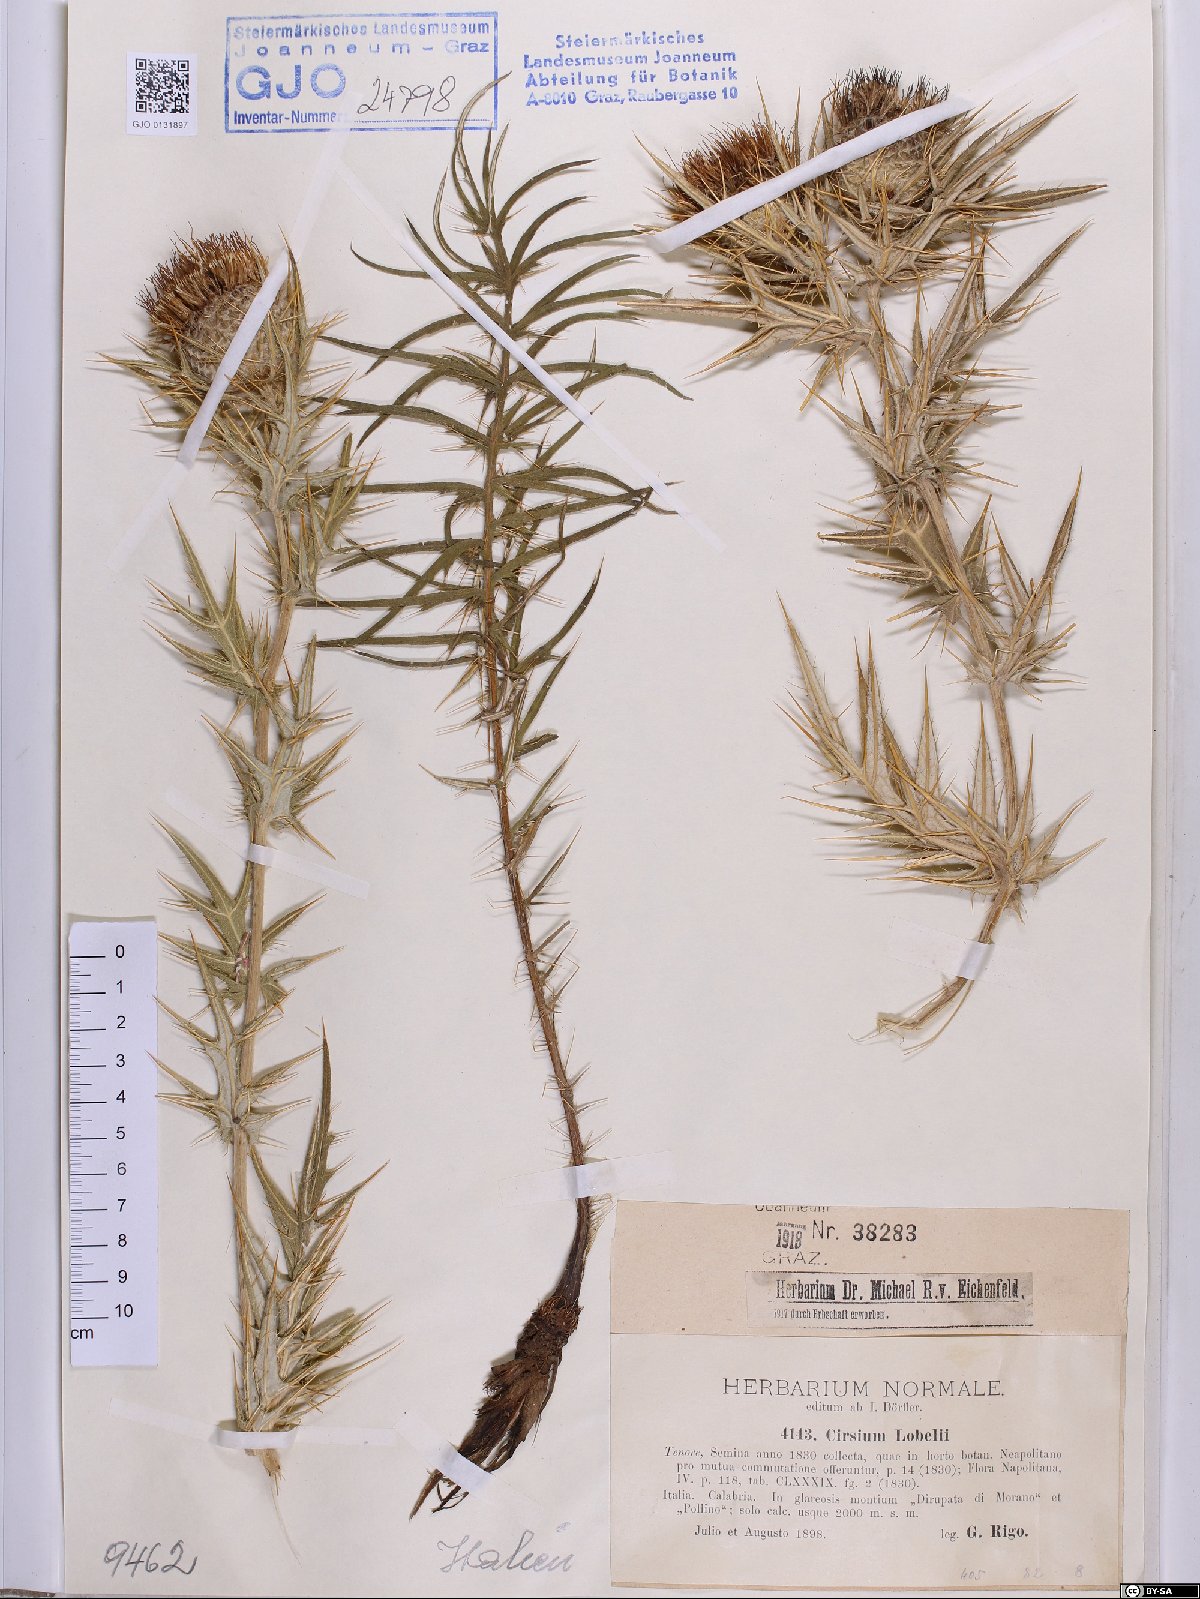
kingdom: Plantae
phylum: Tracheophyta
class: Magnoliopsida
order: Asterales
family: Asteraceae
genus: Lophiolepis
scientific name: Lophiolepis lobelii
